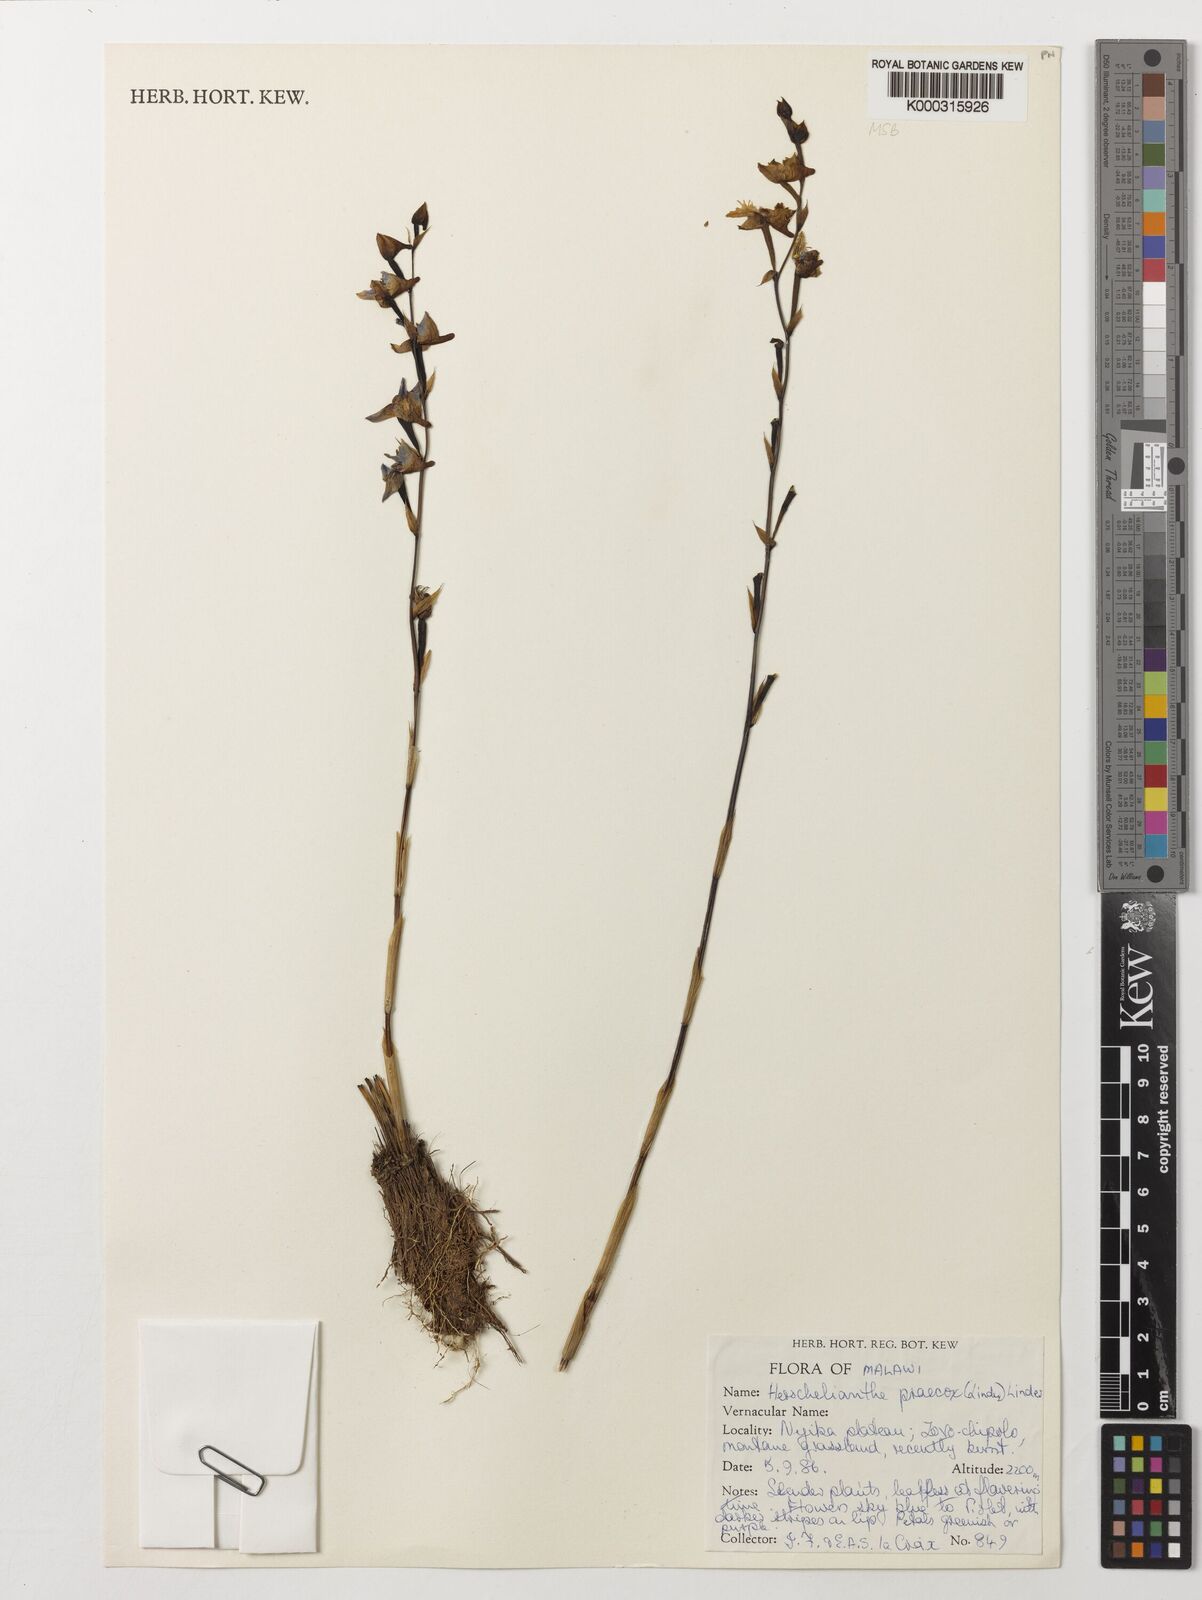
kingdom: Plantae
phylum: Tracheophyta
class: Liliopsida
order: Asparagales
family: Orchidaceae
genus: Disa
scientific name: Disa praecox
